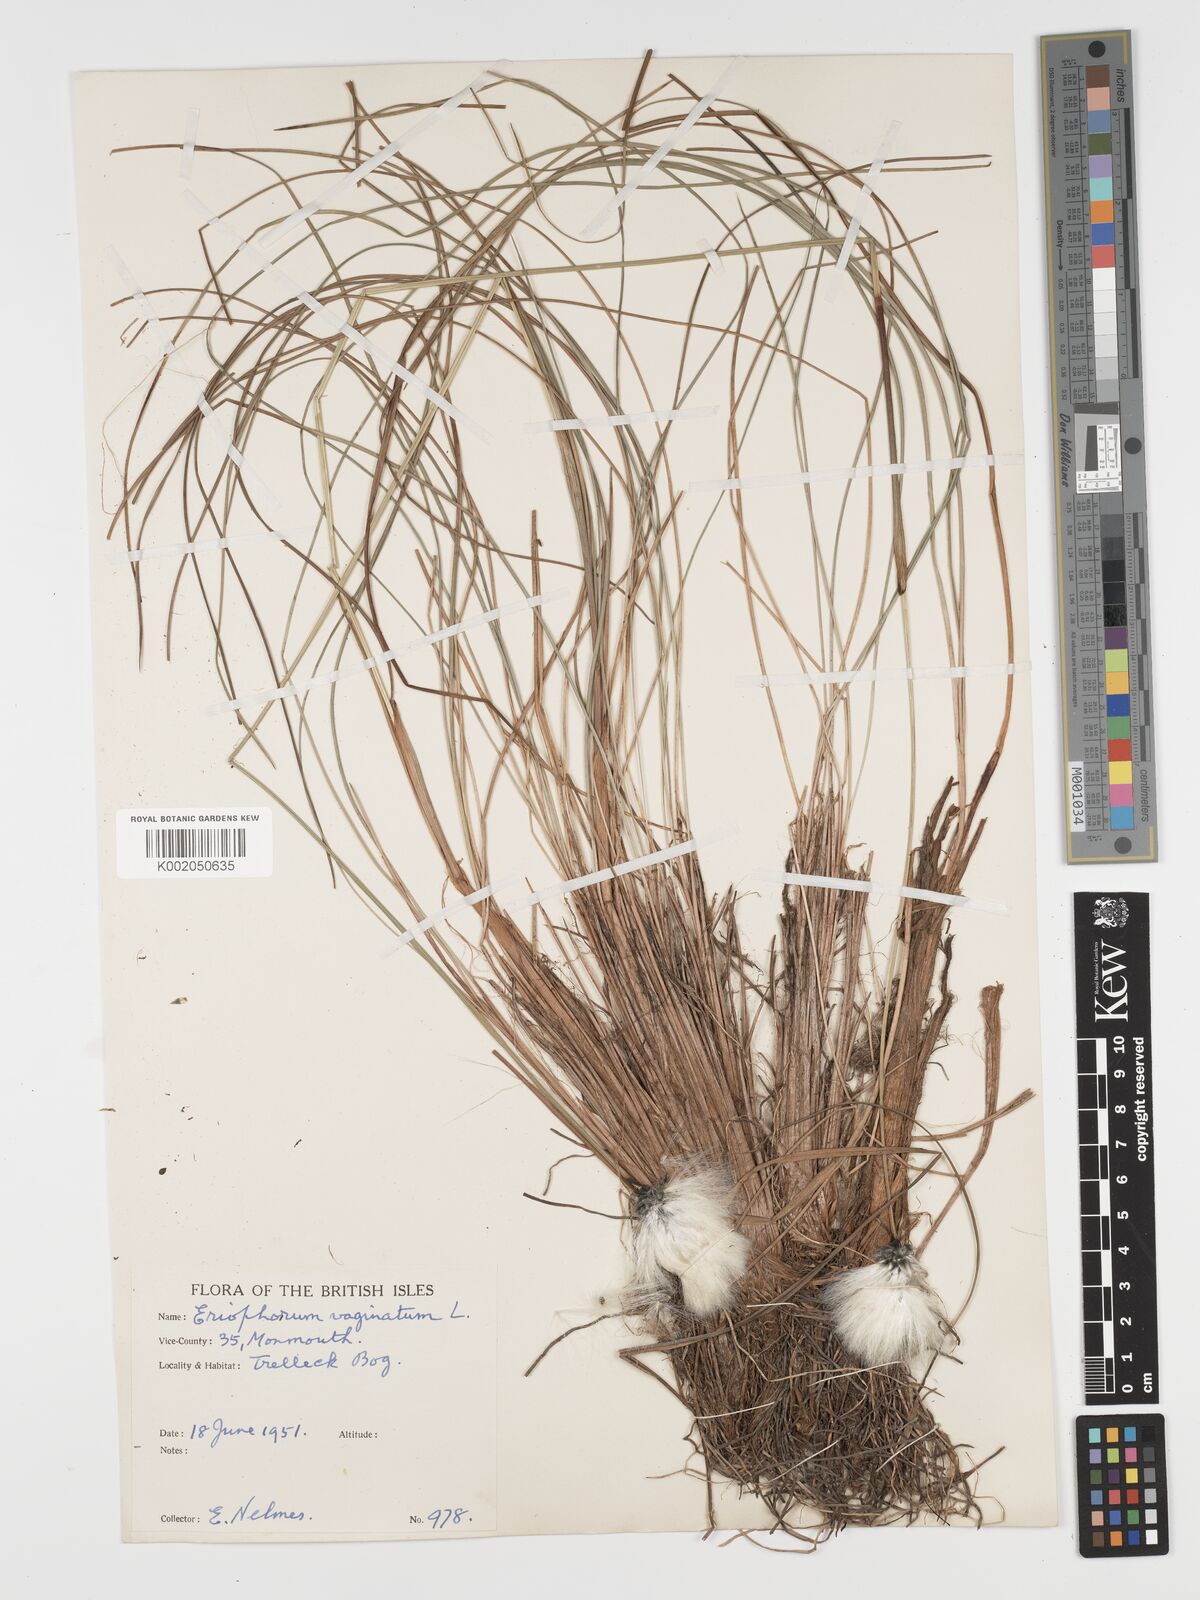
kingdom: Plantae
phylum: Tracheophyta
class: Liliopsida
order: Poales
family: Cyperaceae
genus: Eriophorum
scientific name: Eriophorum vaginatum
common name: Hare's-tail cottongrass
